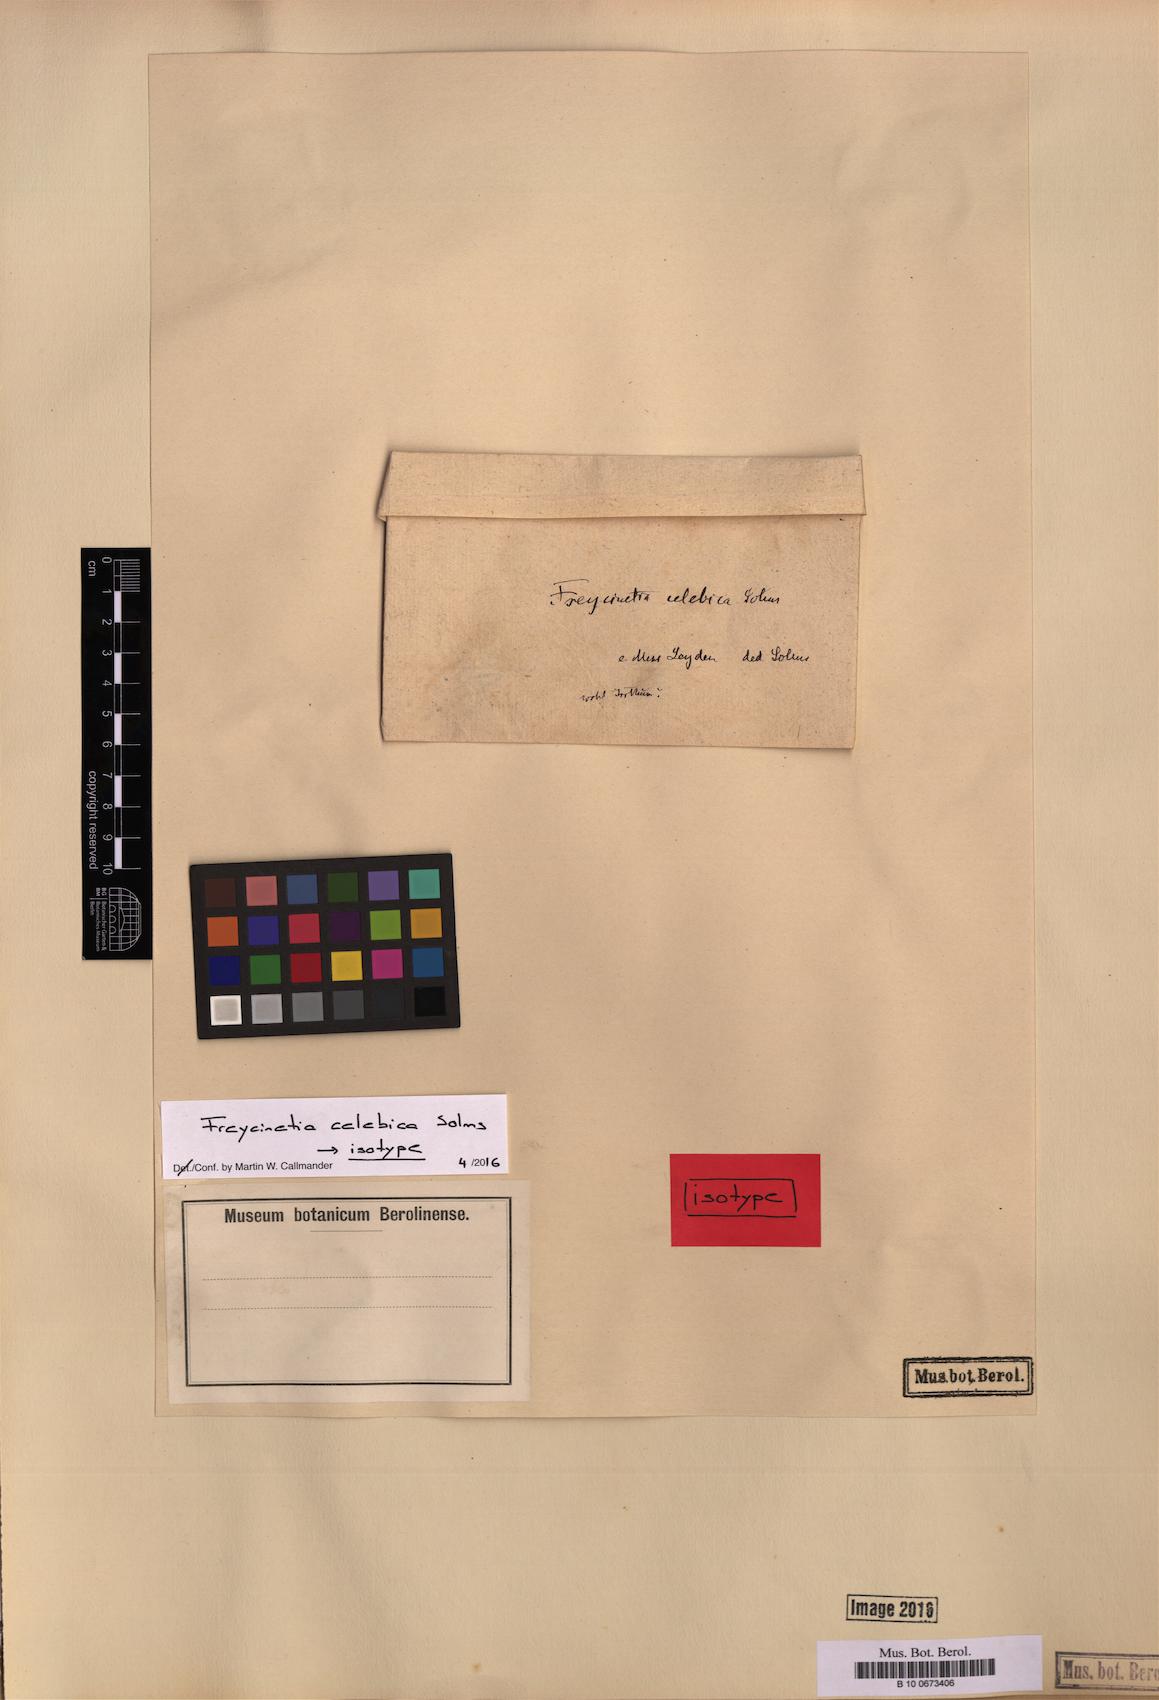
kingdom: Plantae
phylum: Tracheophyta
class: Liliopsida
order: Pandanales
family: Pandanaceae
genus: Freycinetia
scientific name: Freycinetia celebica
